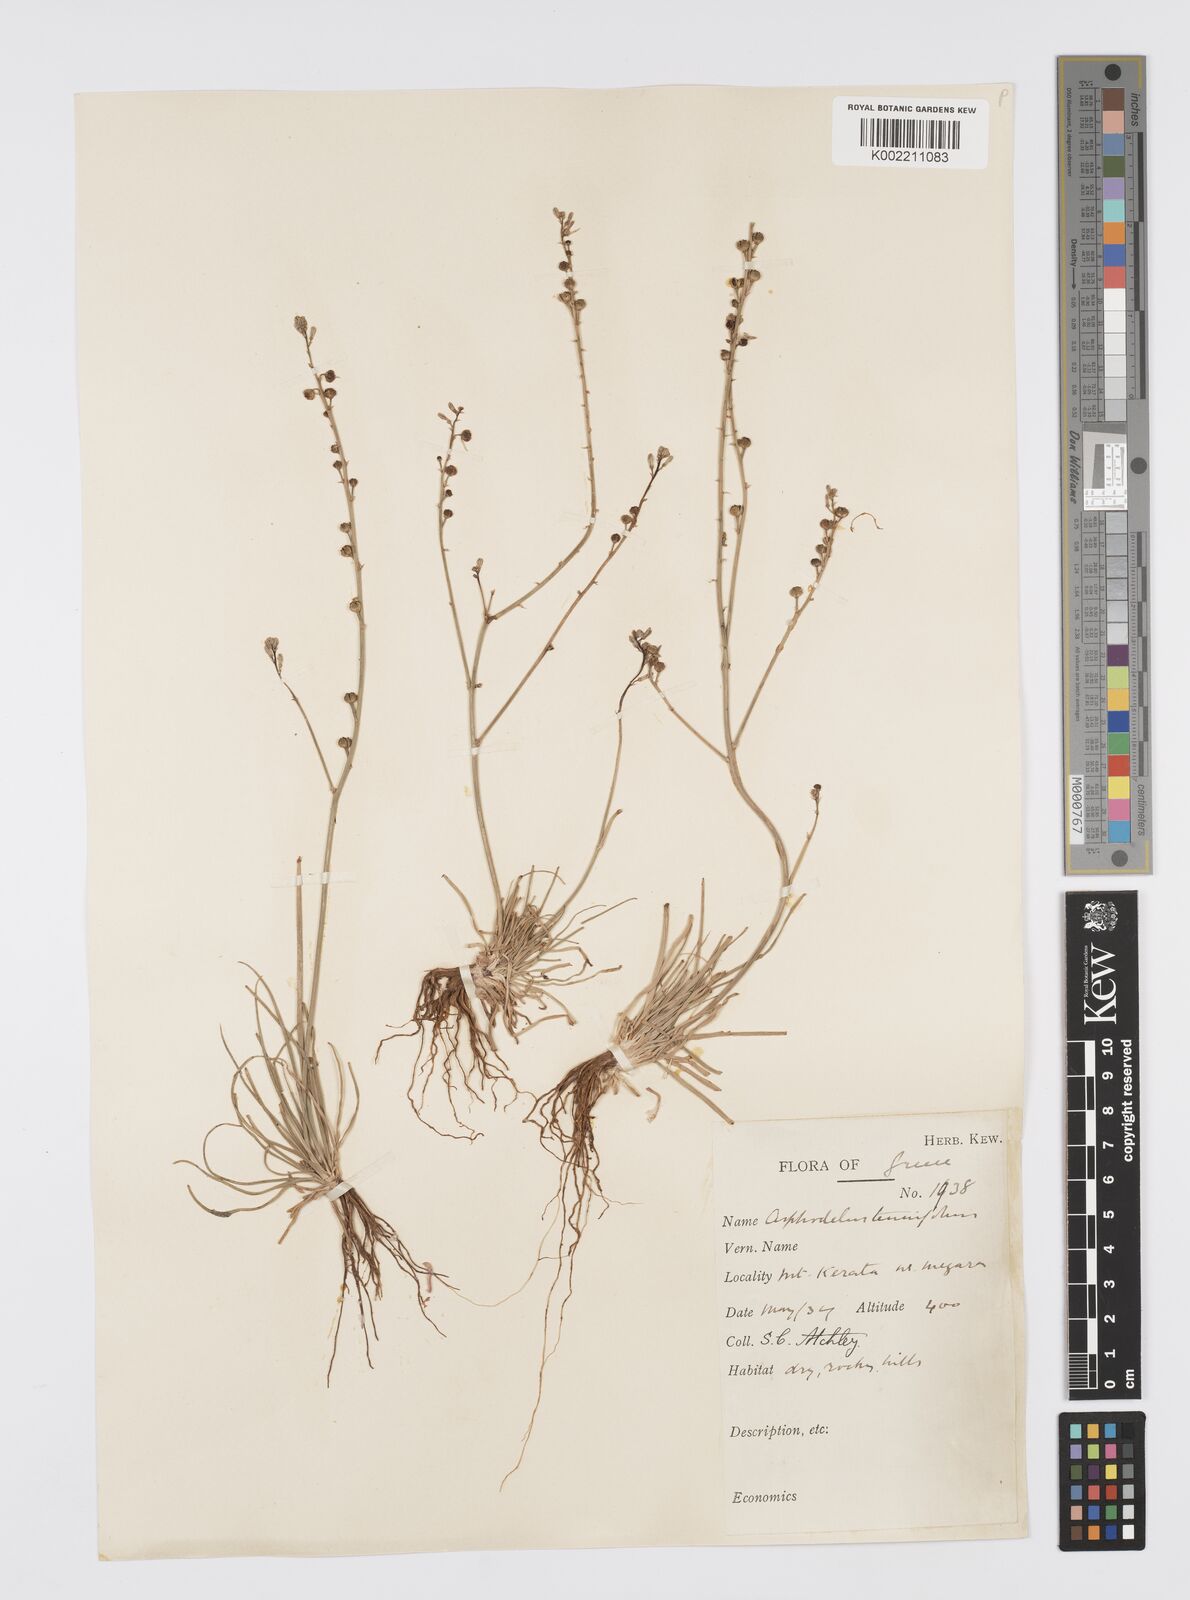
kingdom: Plantae
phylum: Tracheophyta
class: Liliopsida
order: Asparagales
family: Asphodelaceae
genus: Asphodelus
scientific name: Asphodelus tenuifolius
